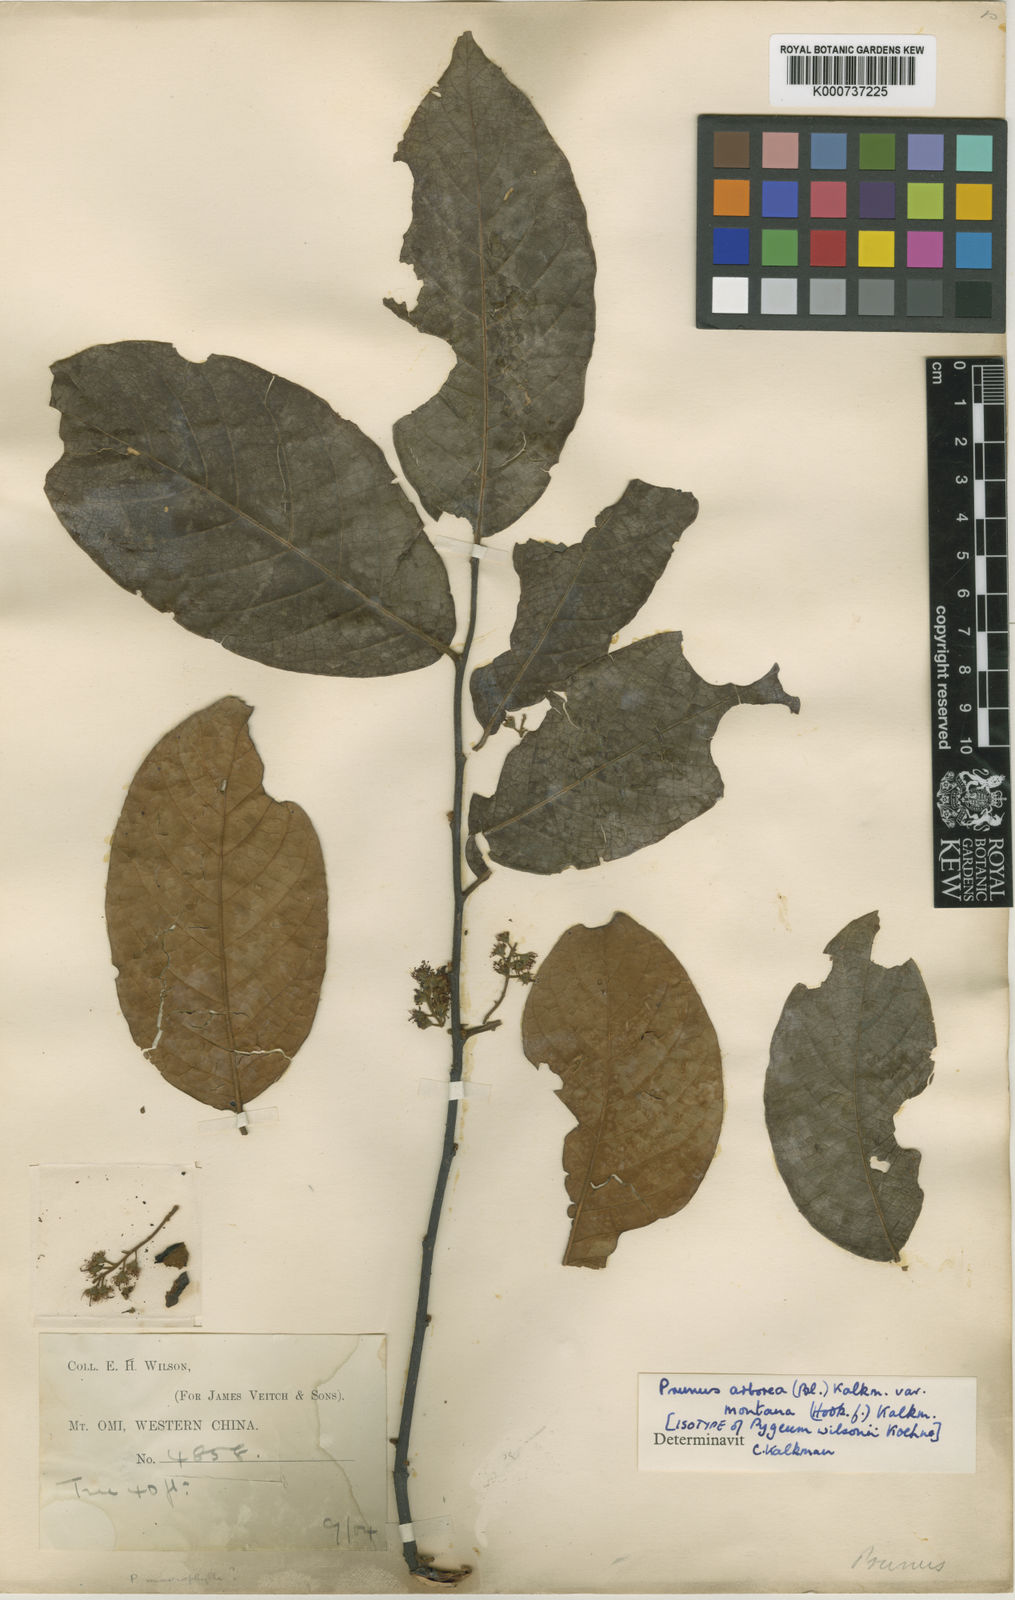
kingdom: Plantae
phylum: Tracheophyta
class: Magnoliopsida
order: Rosales
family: Rosaceae
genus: Prunus
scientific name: Prunus arborea
